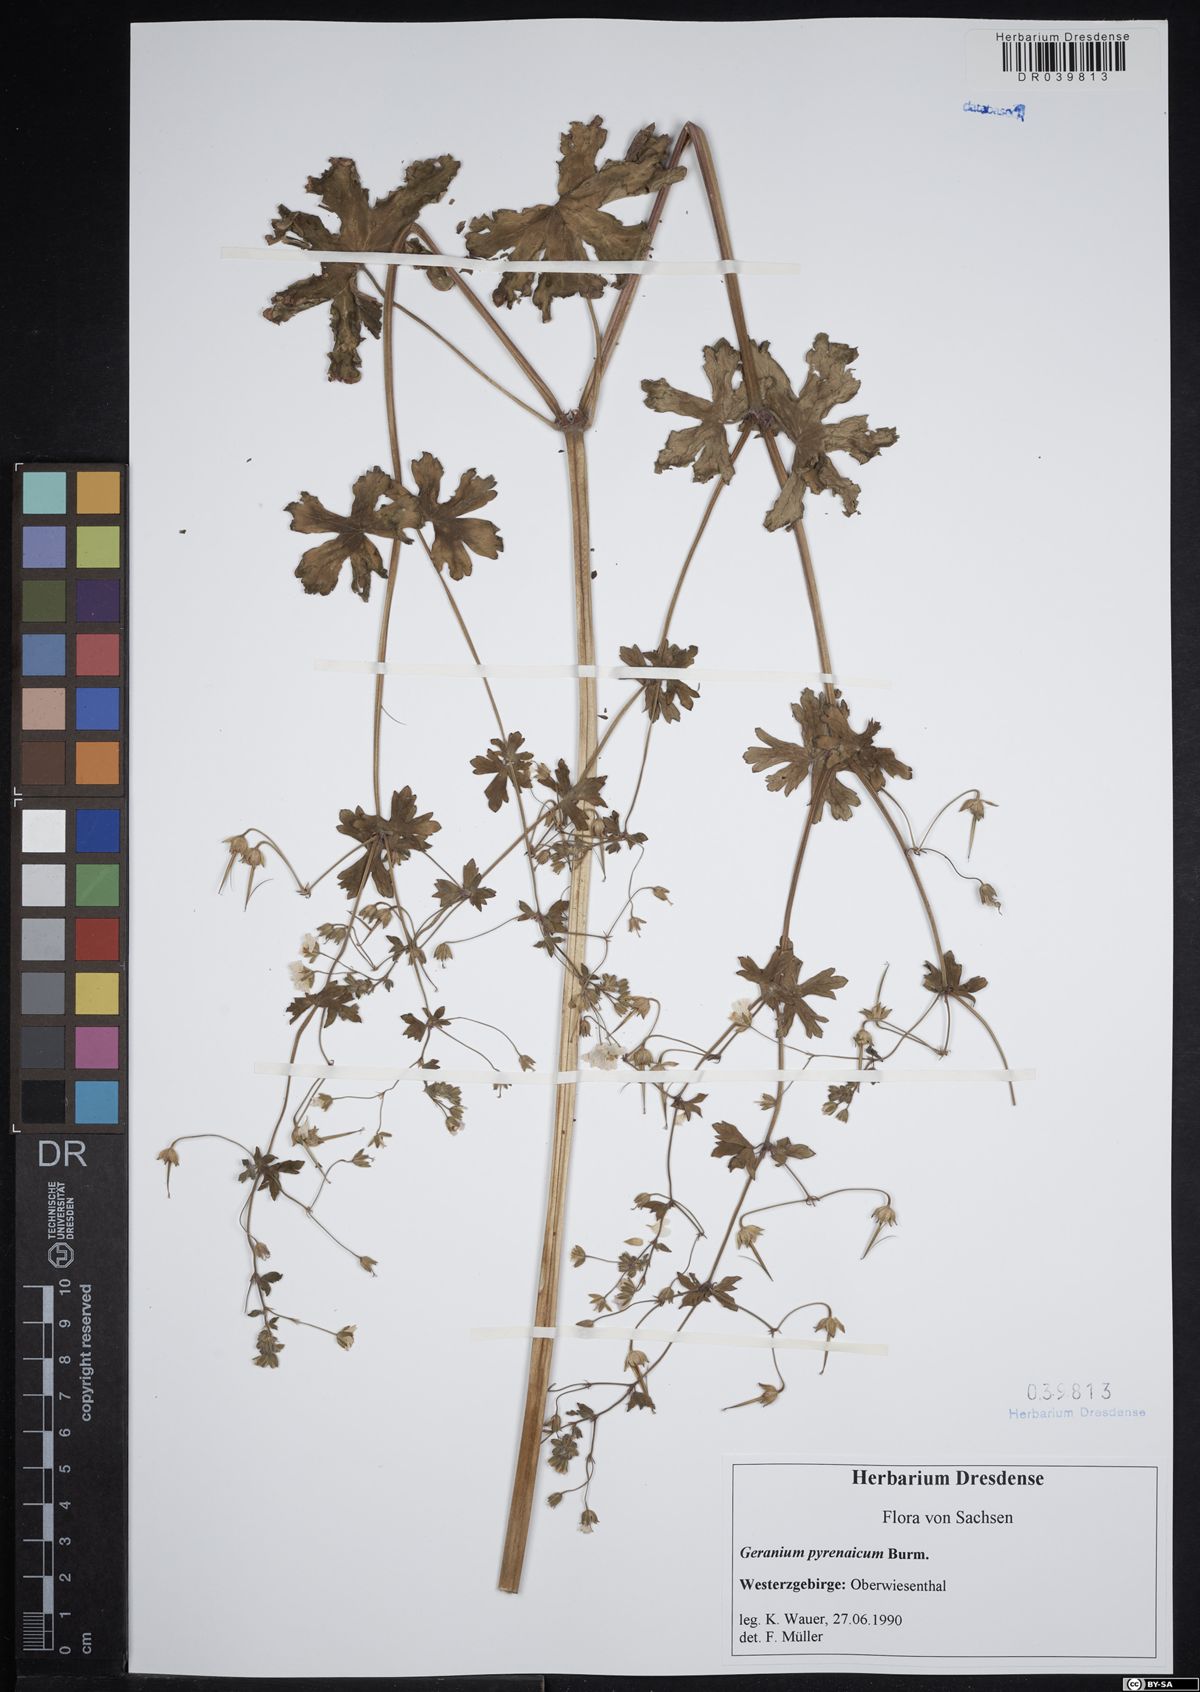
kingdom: Plantae
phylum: Tracheophyta
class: Magnoliopsida
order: Geraniales
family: Geraniaceae
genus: Geranium
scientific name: Geranium pyrenaicum
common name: Hedgerow crane's-bill
